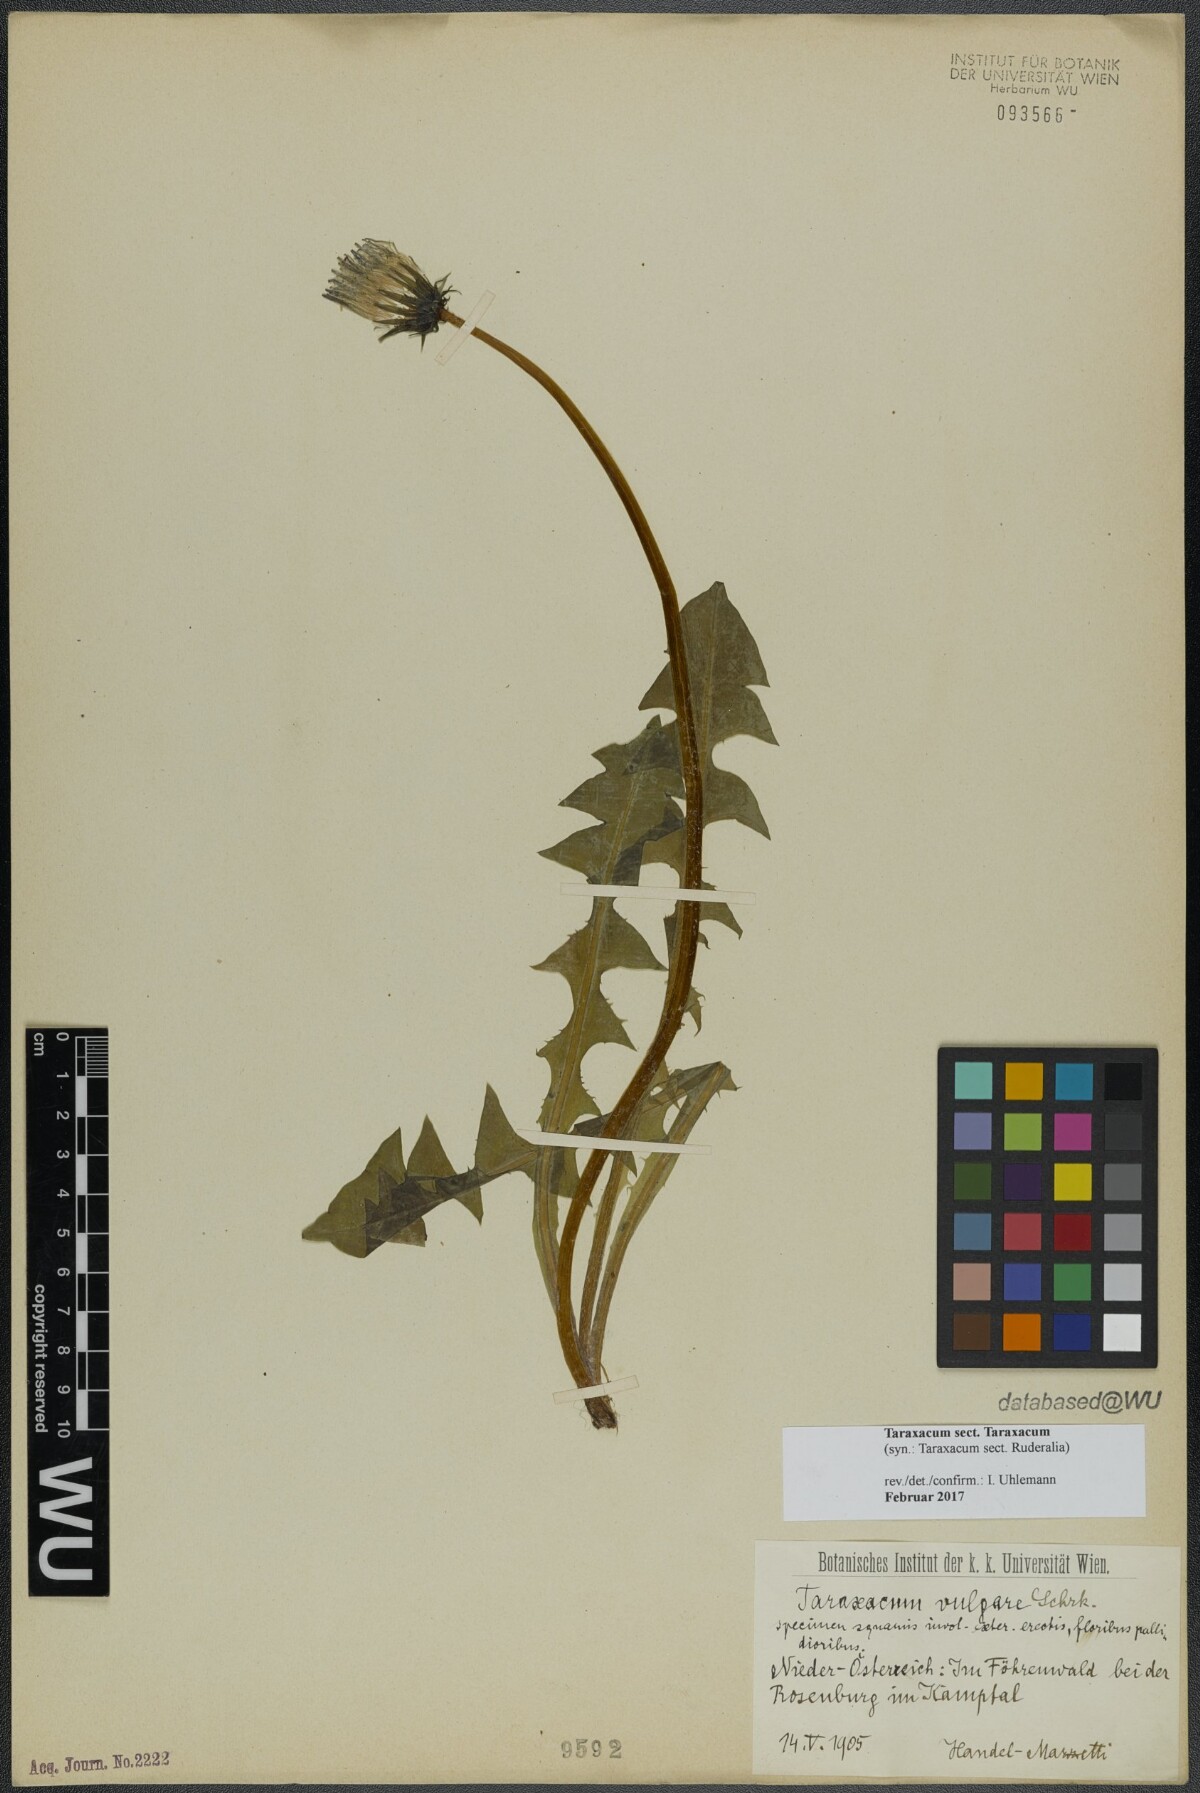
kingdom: Plantae
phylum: Tracheophyta
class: Magnoliopsida
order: Asterales
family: Asteraceae
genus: Taraxacum
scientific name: Taraxacum
